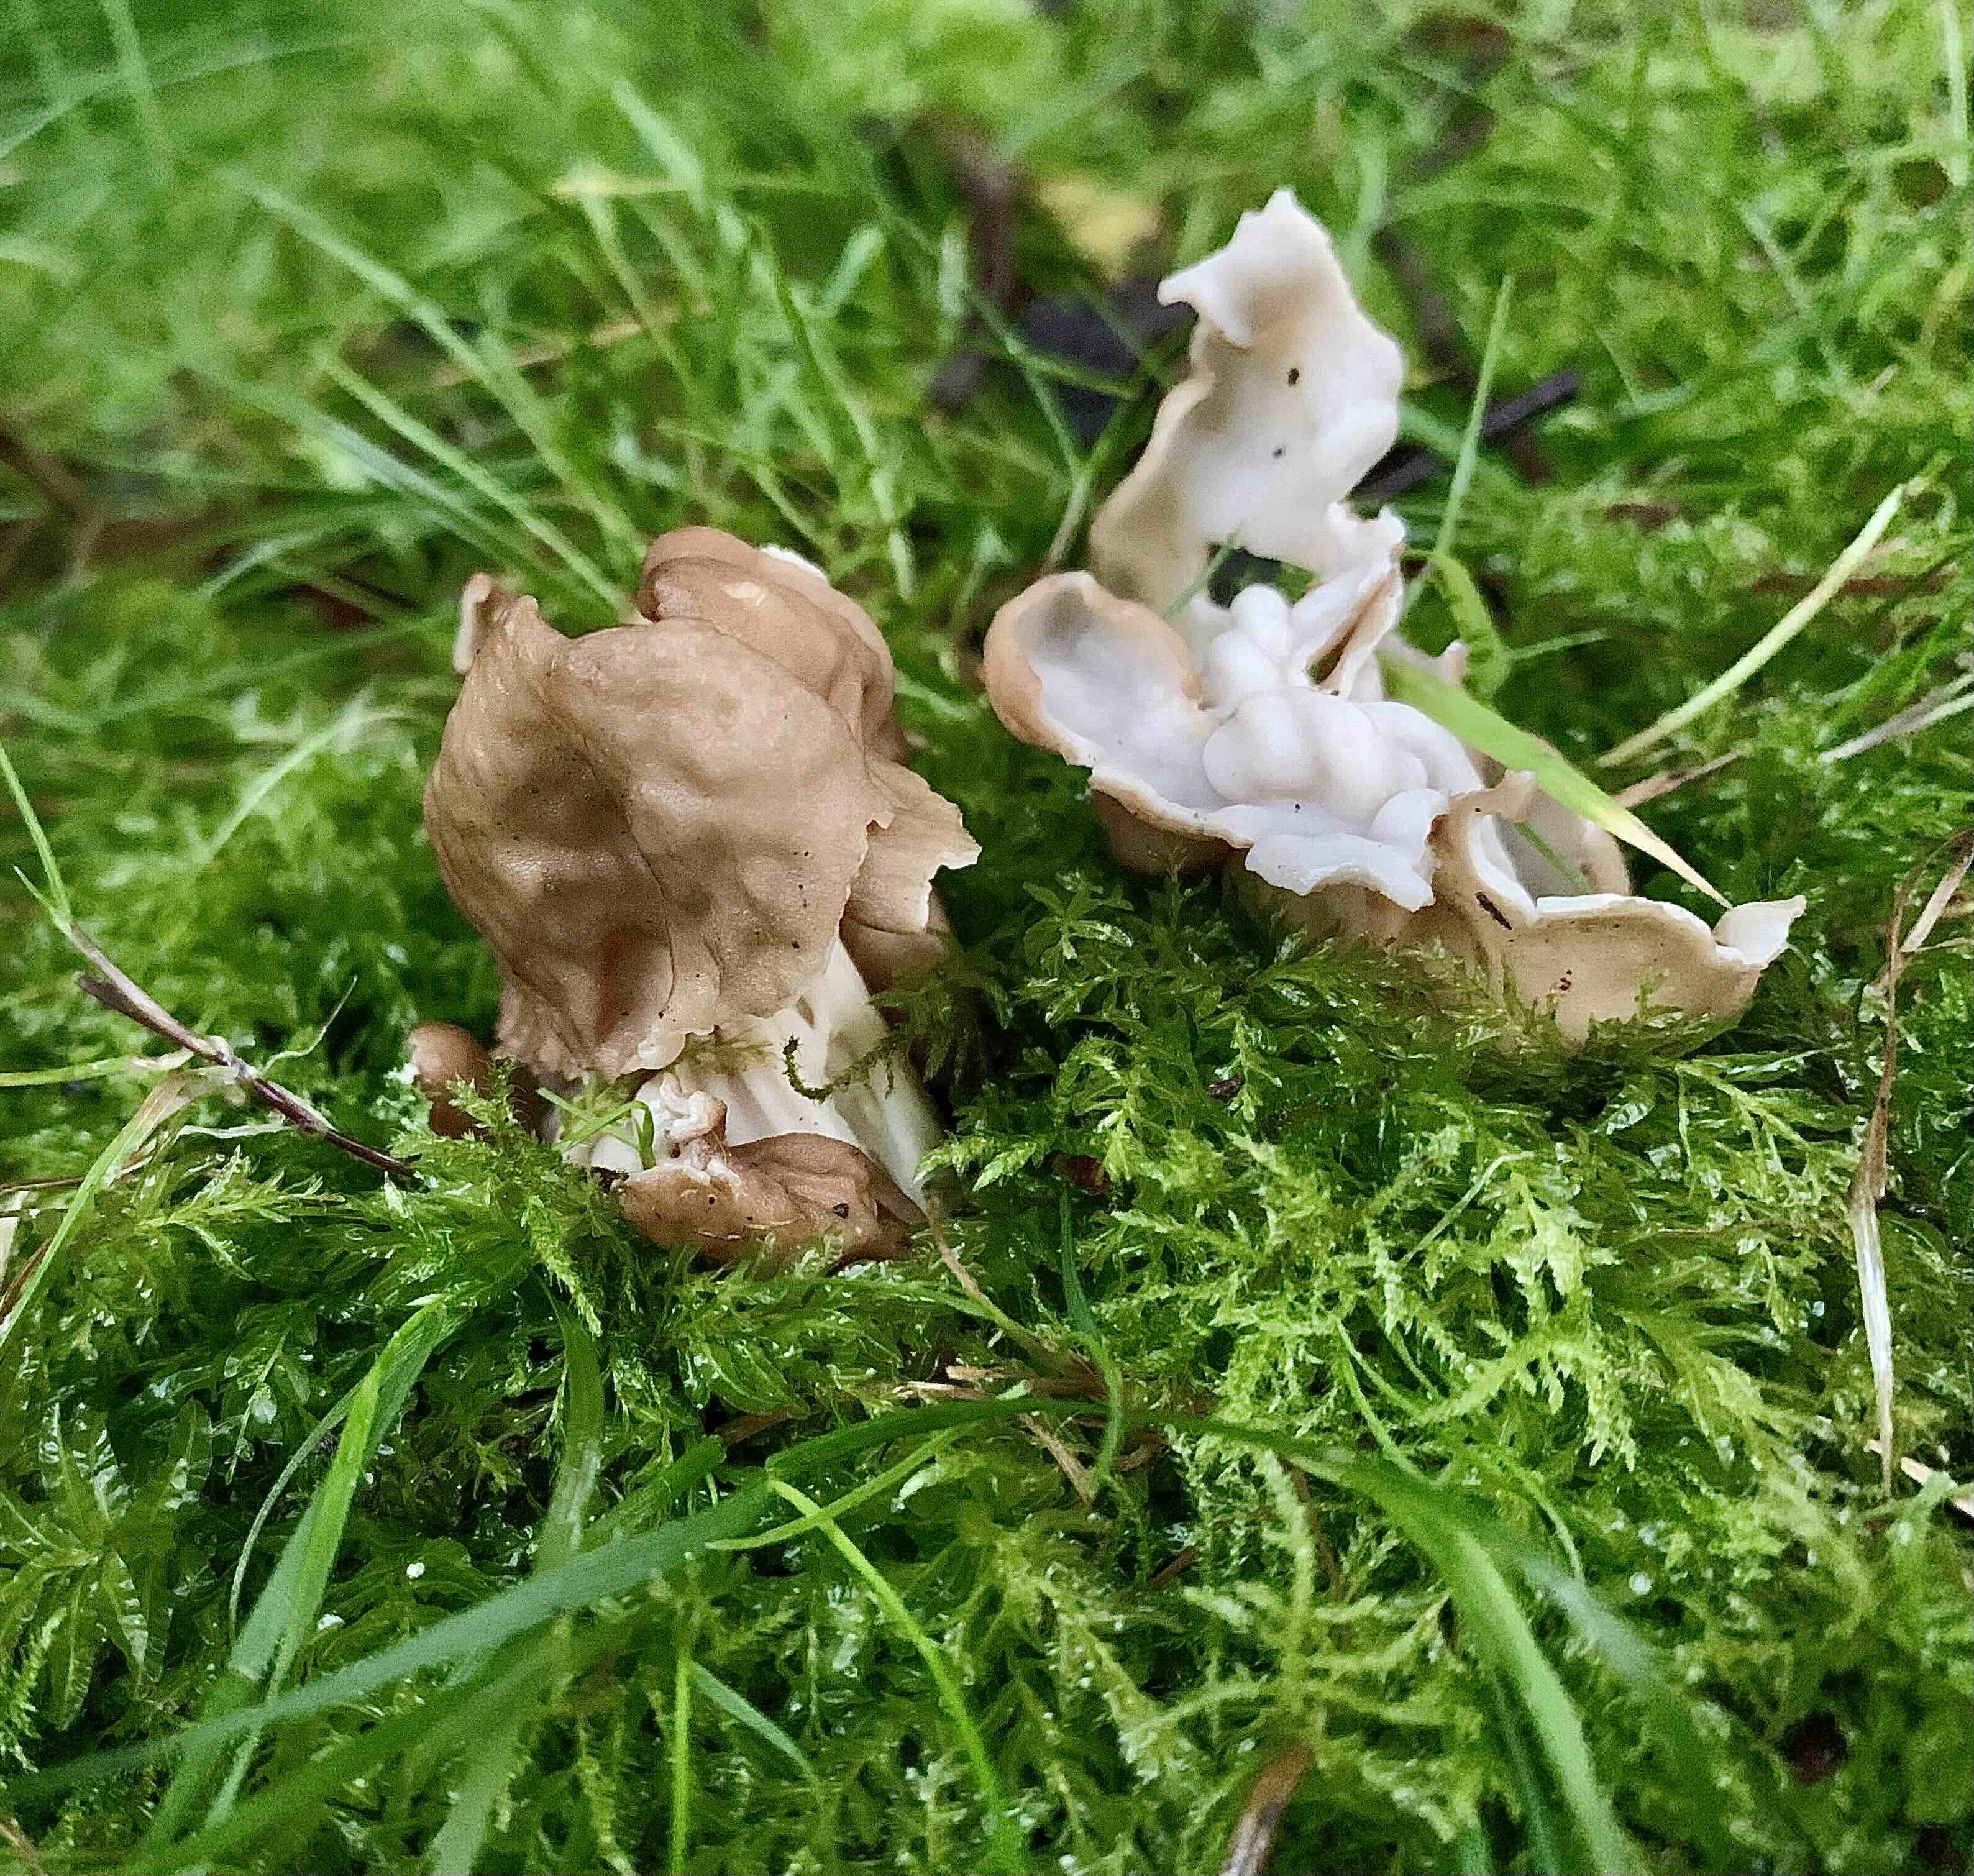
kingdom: Fungi
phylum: Ascomycota
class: Pezizomycetes
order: Pezizales
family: Helvellaceae
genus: Helvella
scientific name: Helvella crispa
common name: kruset foldhat
